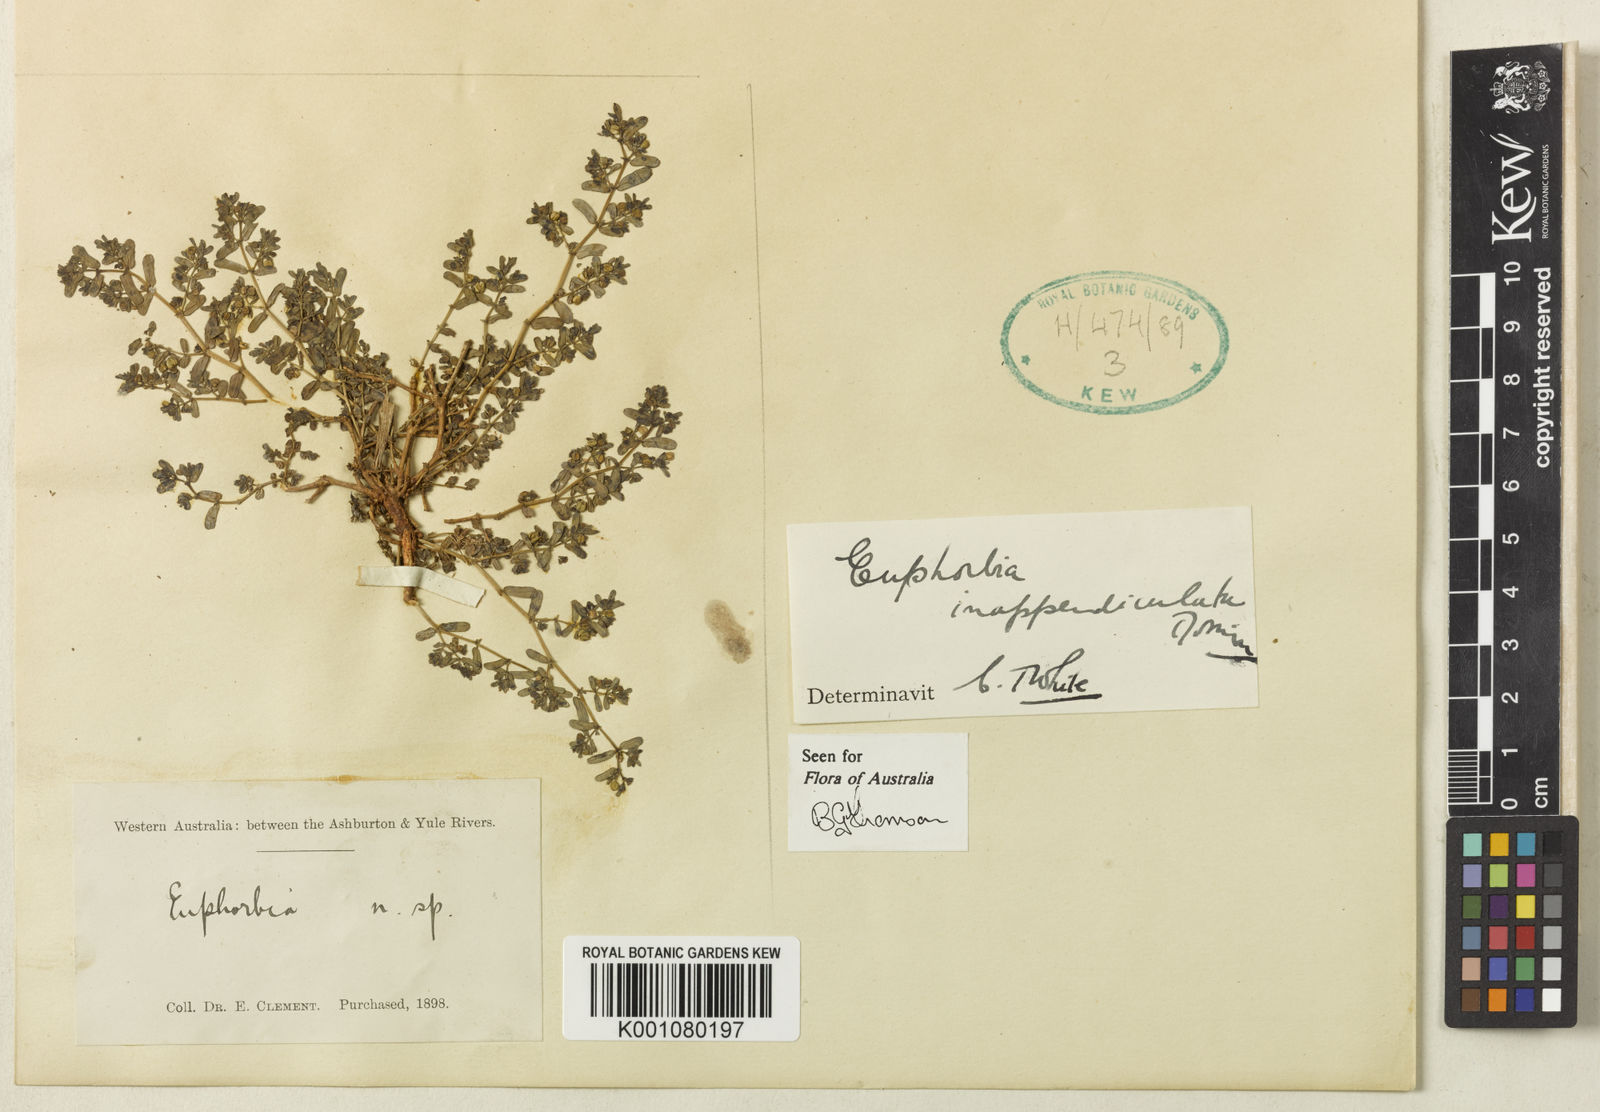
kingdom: Plantae
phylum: Tracheophyta
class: Magnoliopsida
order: Malpighiales
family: Euphorbiaceae
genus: Euphorbia
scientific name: Euphorbia inappendiculata
